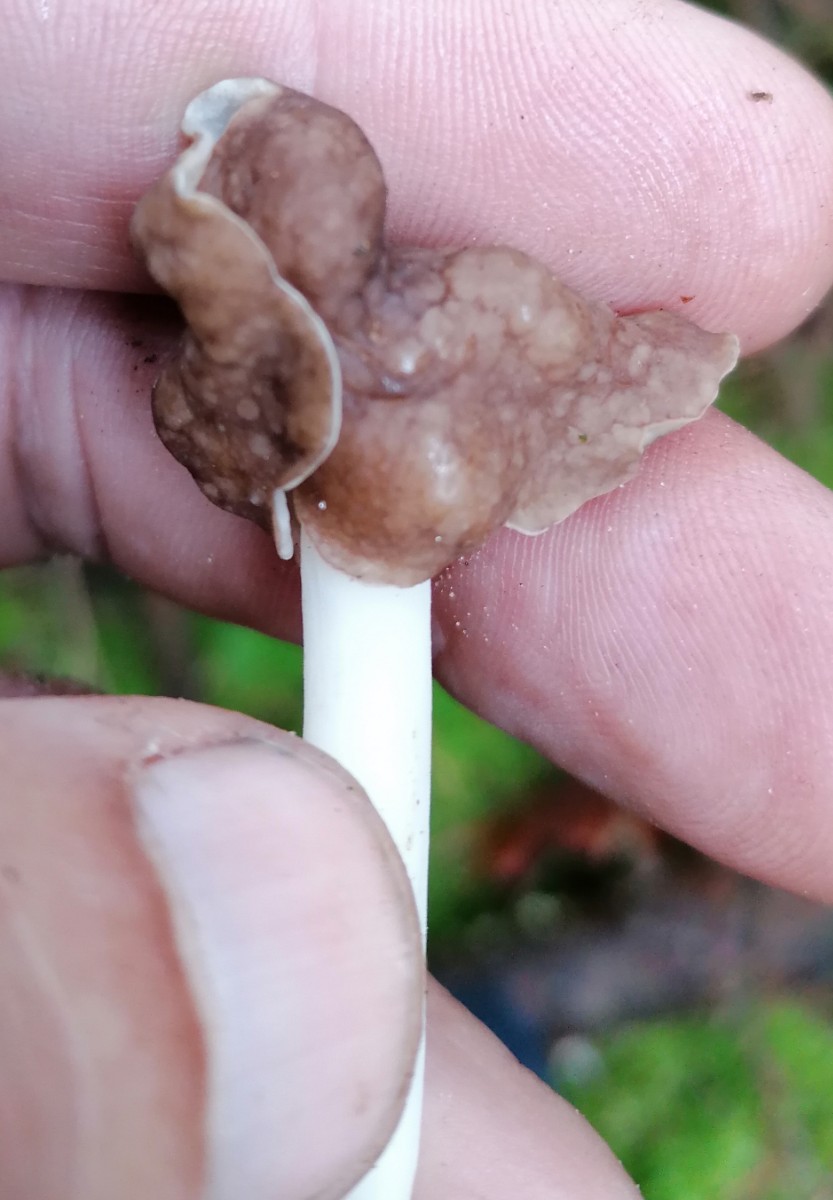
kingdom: Fungi
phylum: Ascomycota
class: Pezizomycetes
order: Pezizales
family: Helvellaceae
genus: Helvella
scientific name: Helvella bicolor
